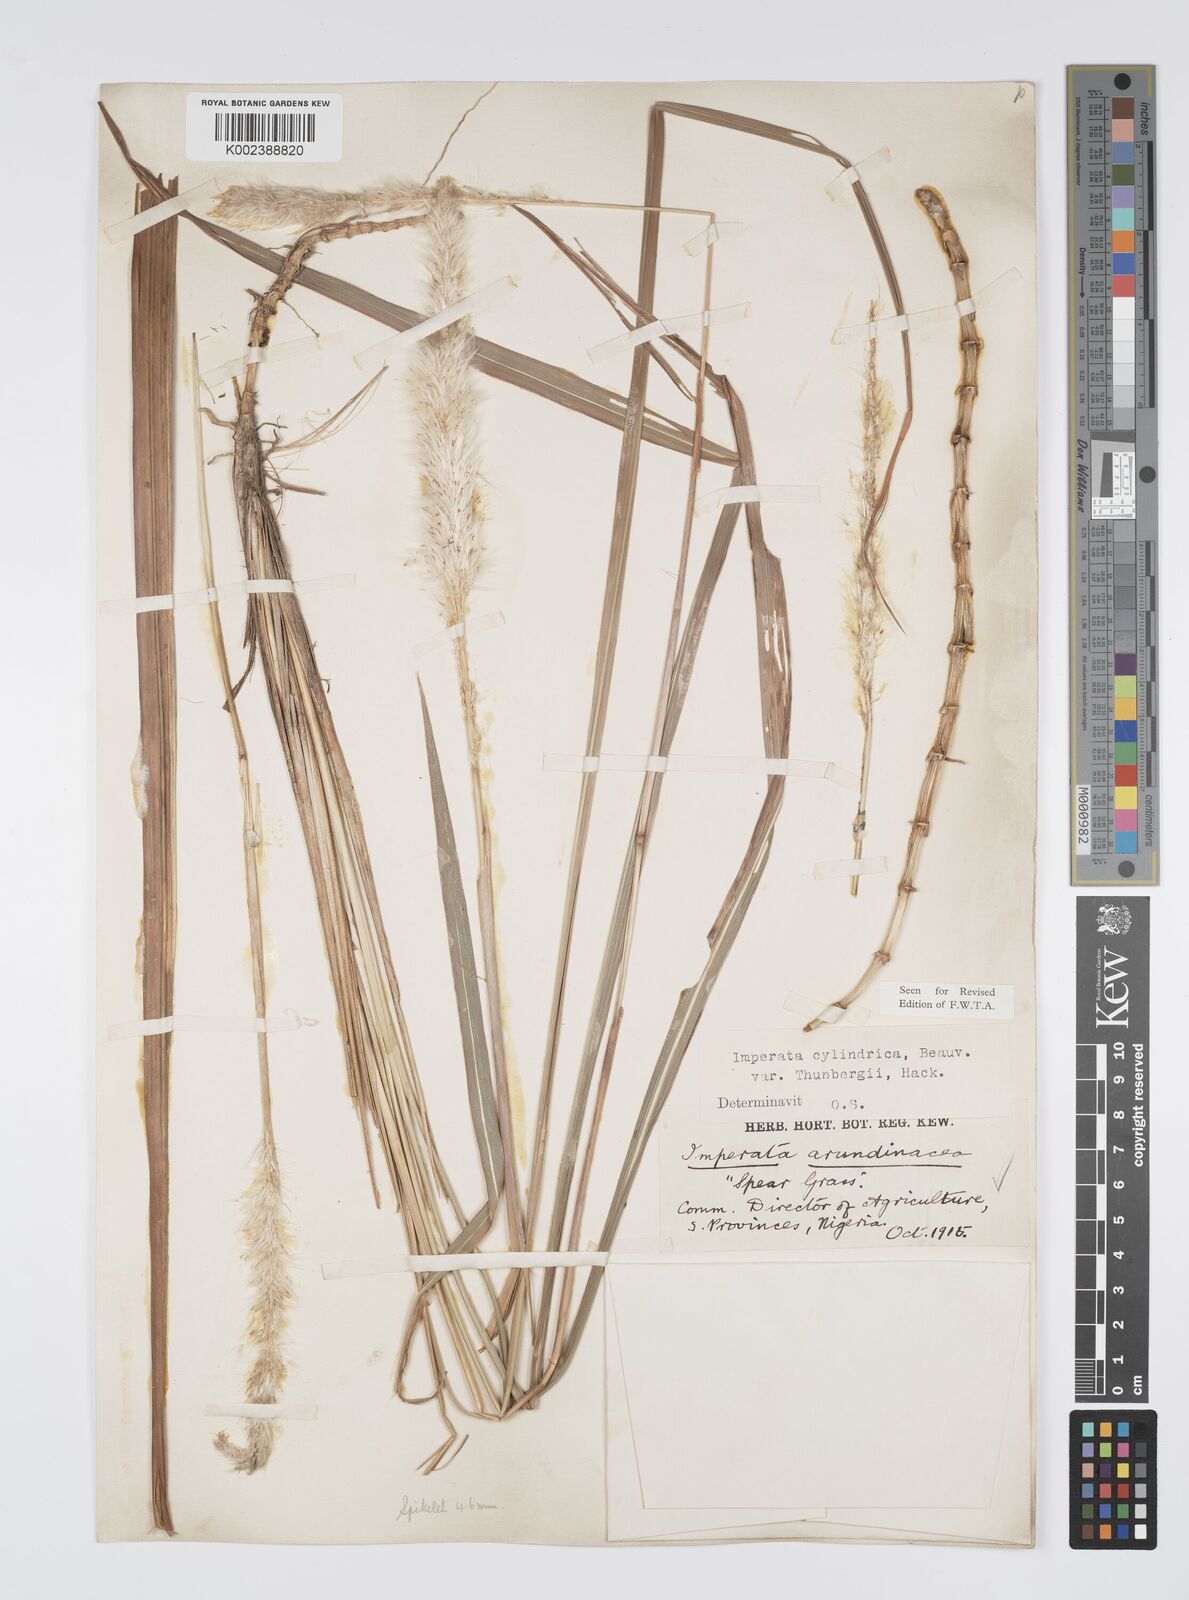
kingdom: Plantae
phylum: Tracheophyta
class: Liliopsida
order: Poales
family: Poaceae
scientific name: Poaceae
